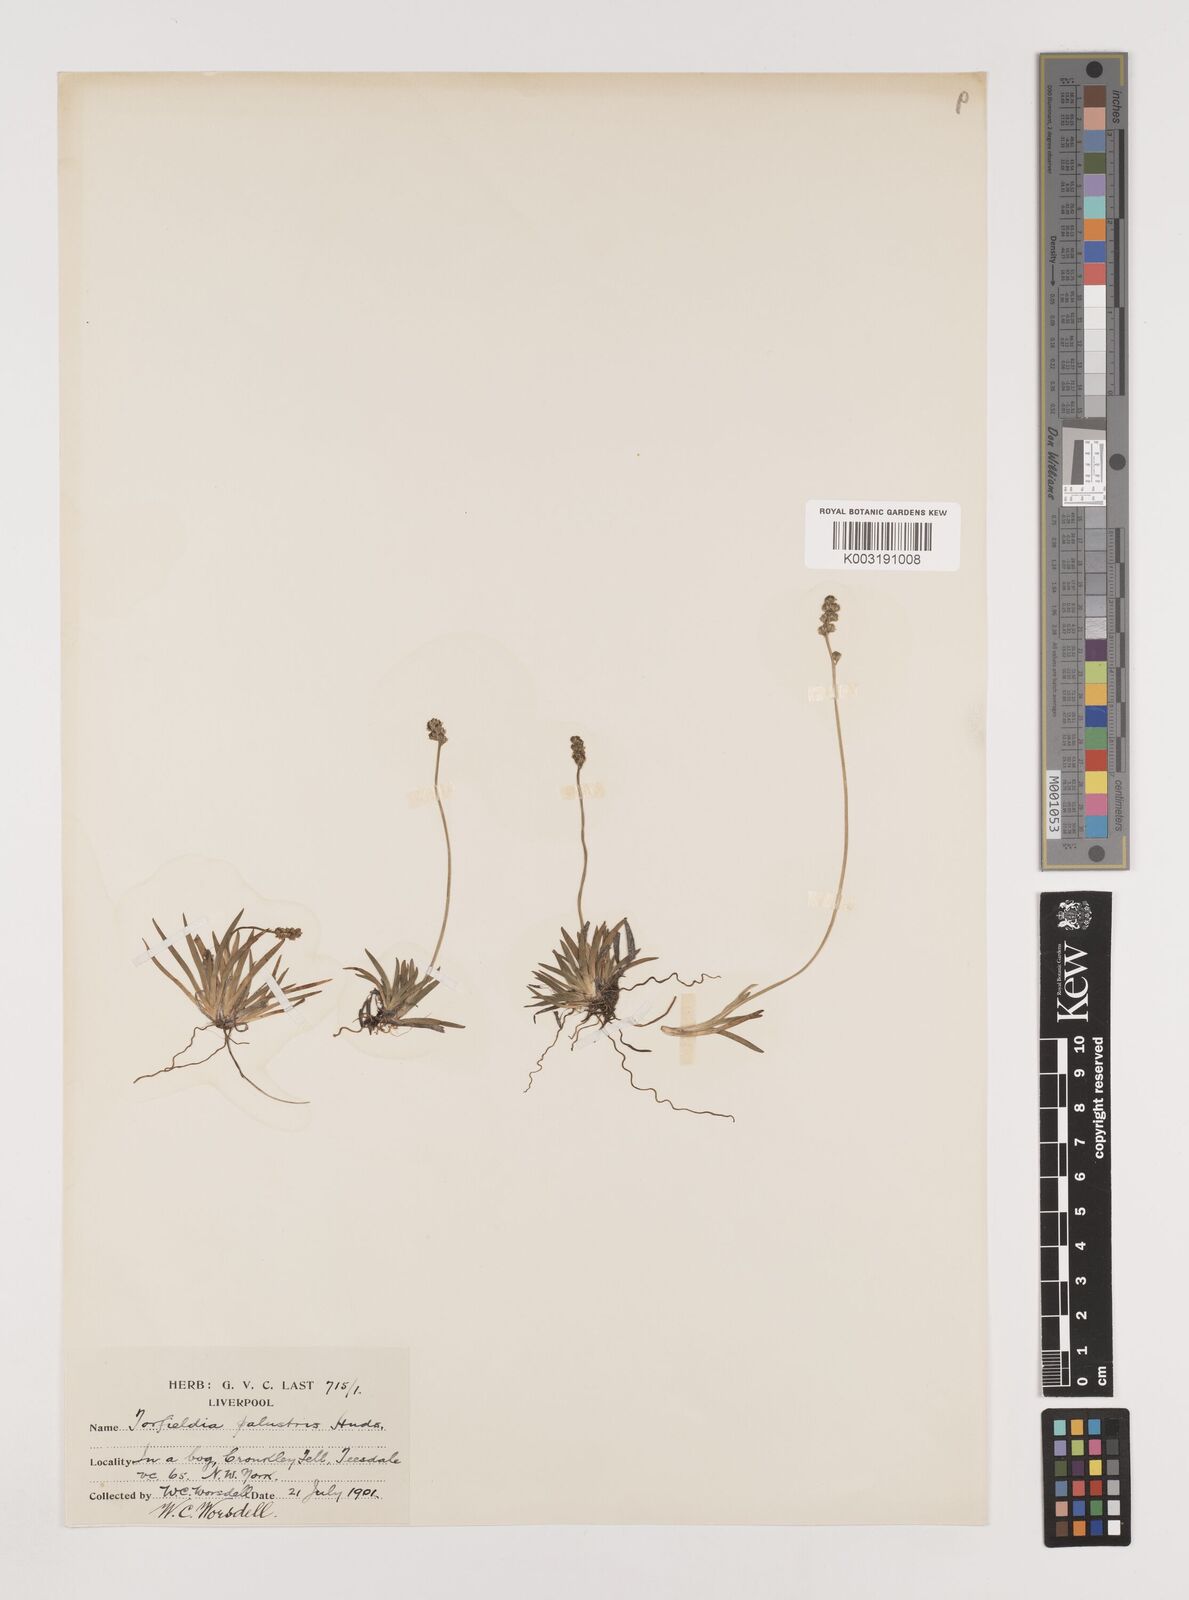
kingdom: Plantae
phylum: Tracheophyta
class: Liliopsida
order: Alismatales
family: Tofieldiaceae
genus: Tofieldia
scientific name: Tofieldia pusilla
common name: Scottish false asphodel
